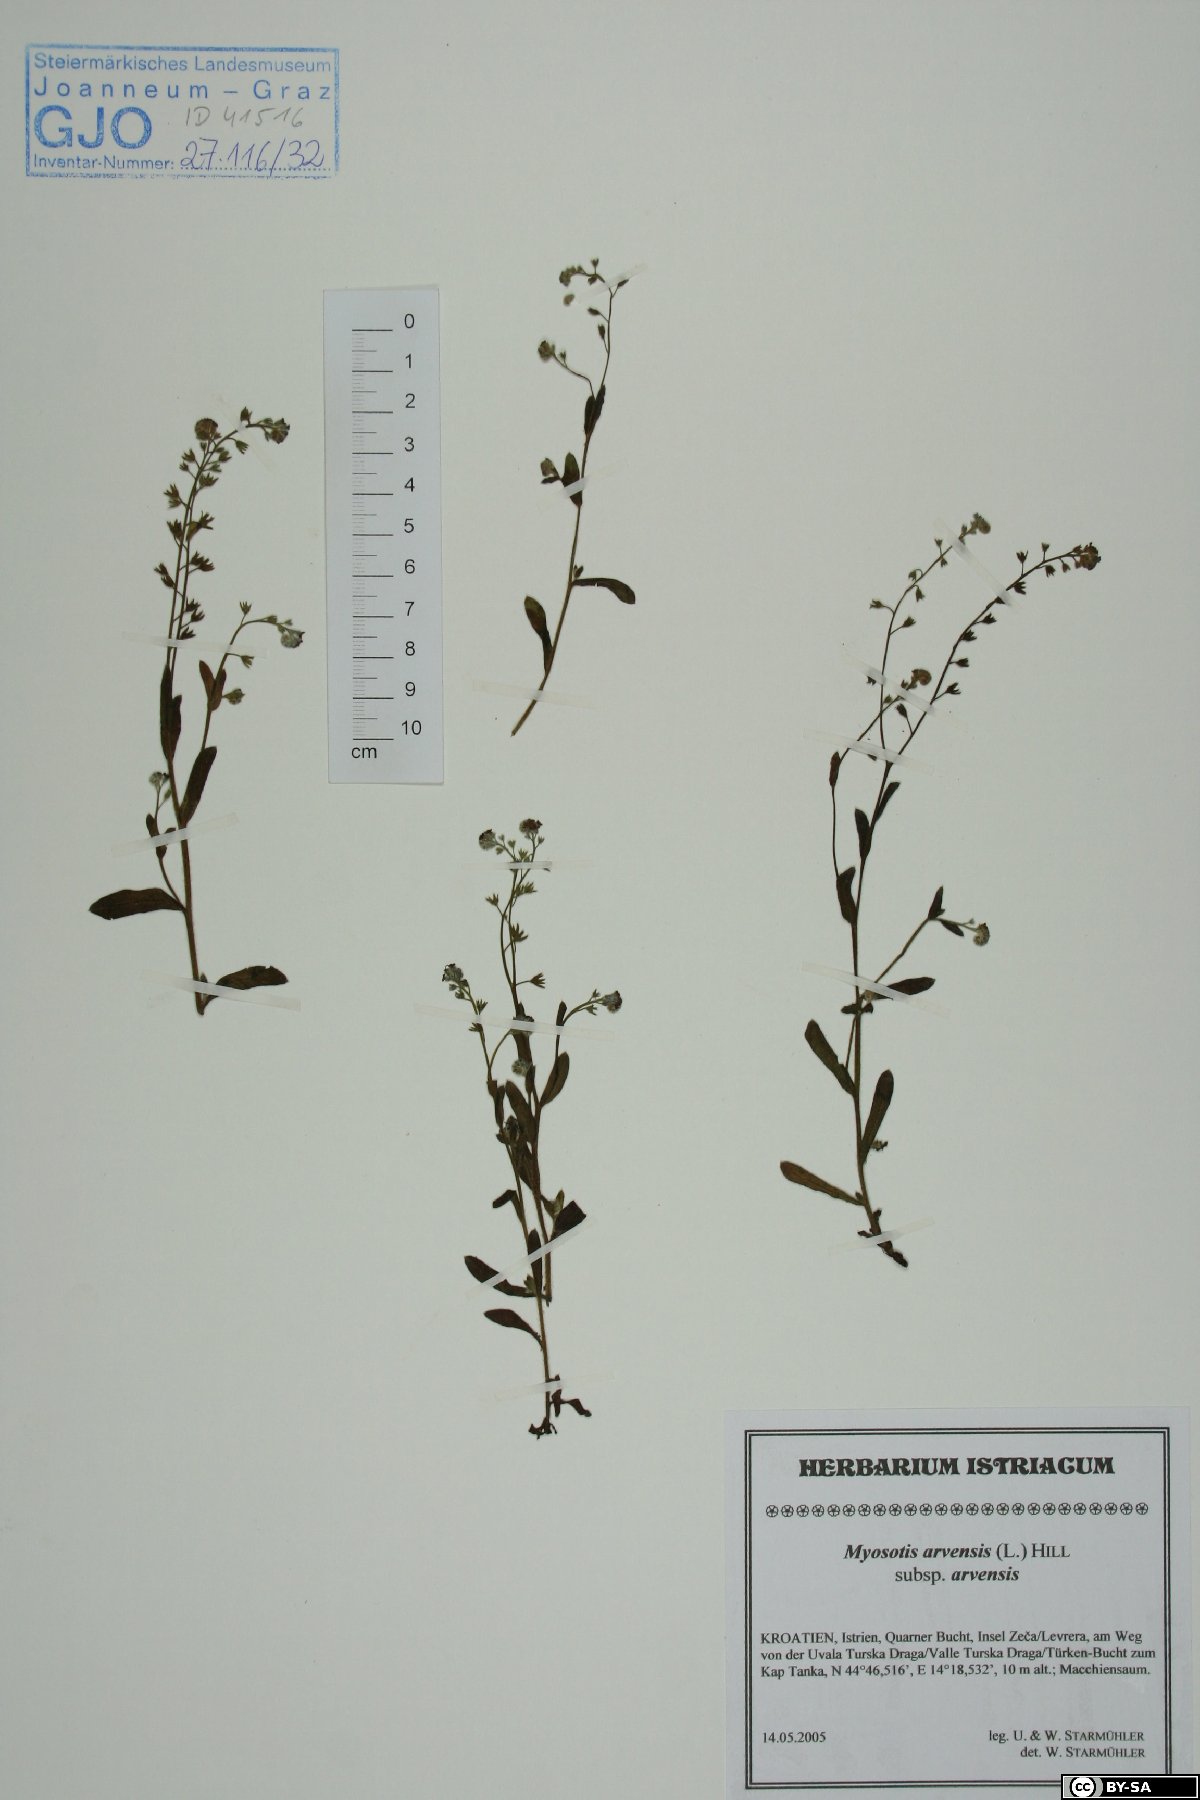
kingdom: Plantae
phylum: Tracheophyta
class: Magnoliopsida
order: Boraginales
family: Boraginaceae
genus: Myosotis
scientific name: Myosotis arvensis
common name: Field forget-me-not
